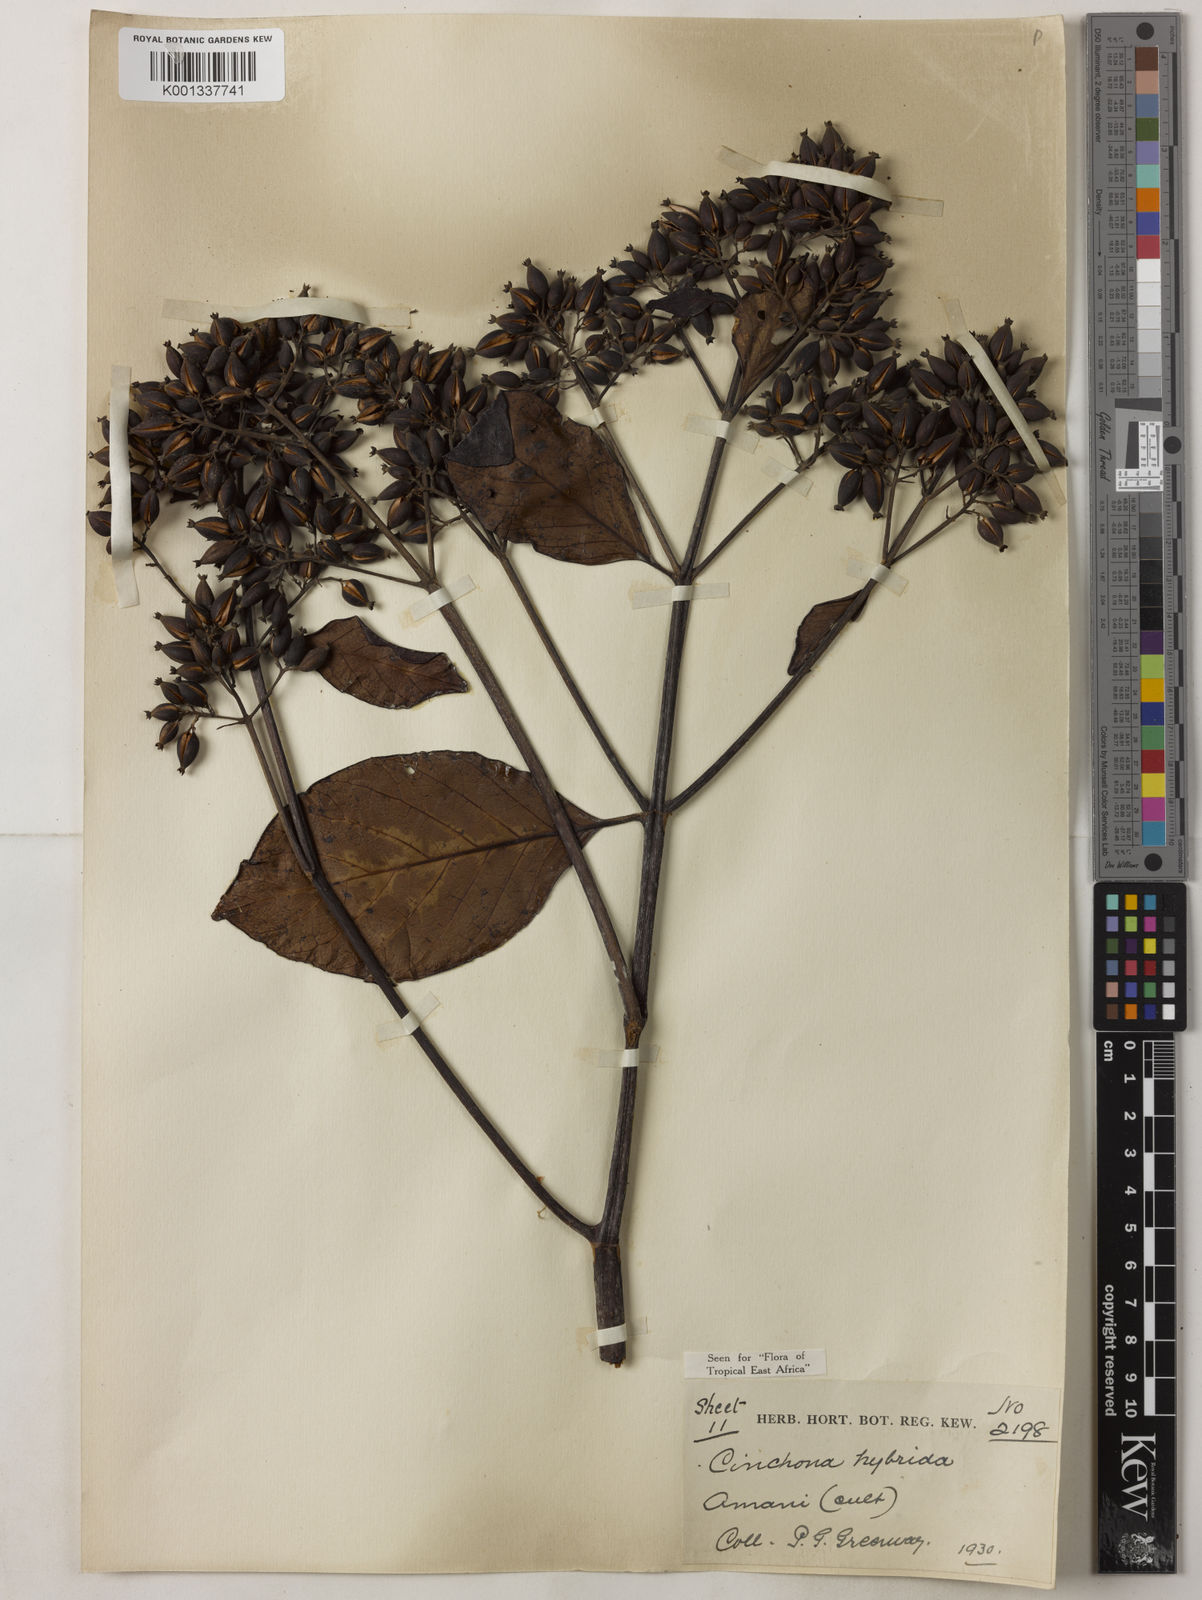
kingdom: Plantae
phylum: Tracheophyta
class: Magnoliopsida
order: Gentianales
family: Rubiaceae
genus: Cinchona
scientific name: Cinchona
